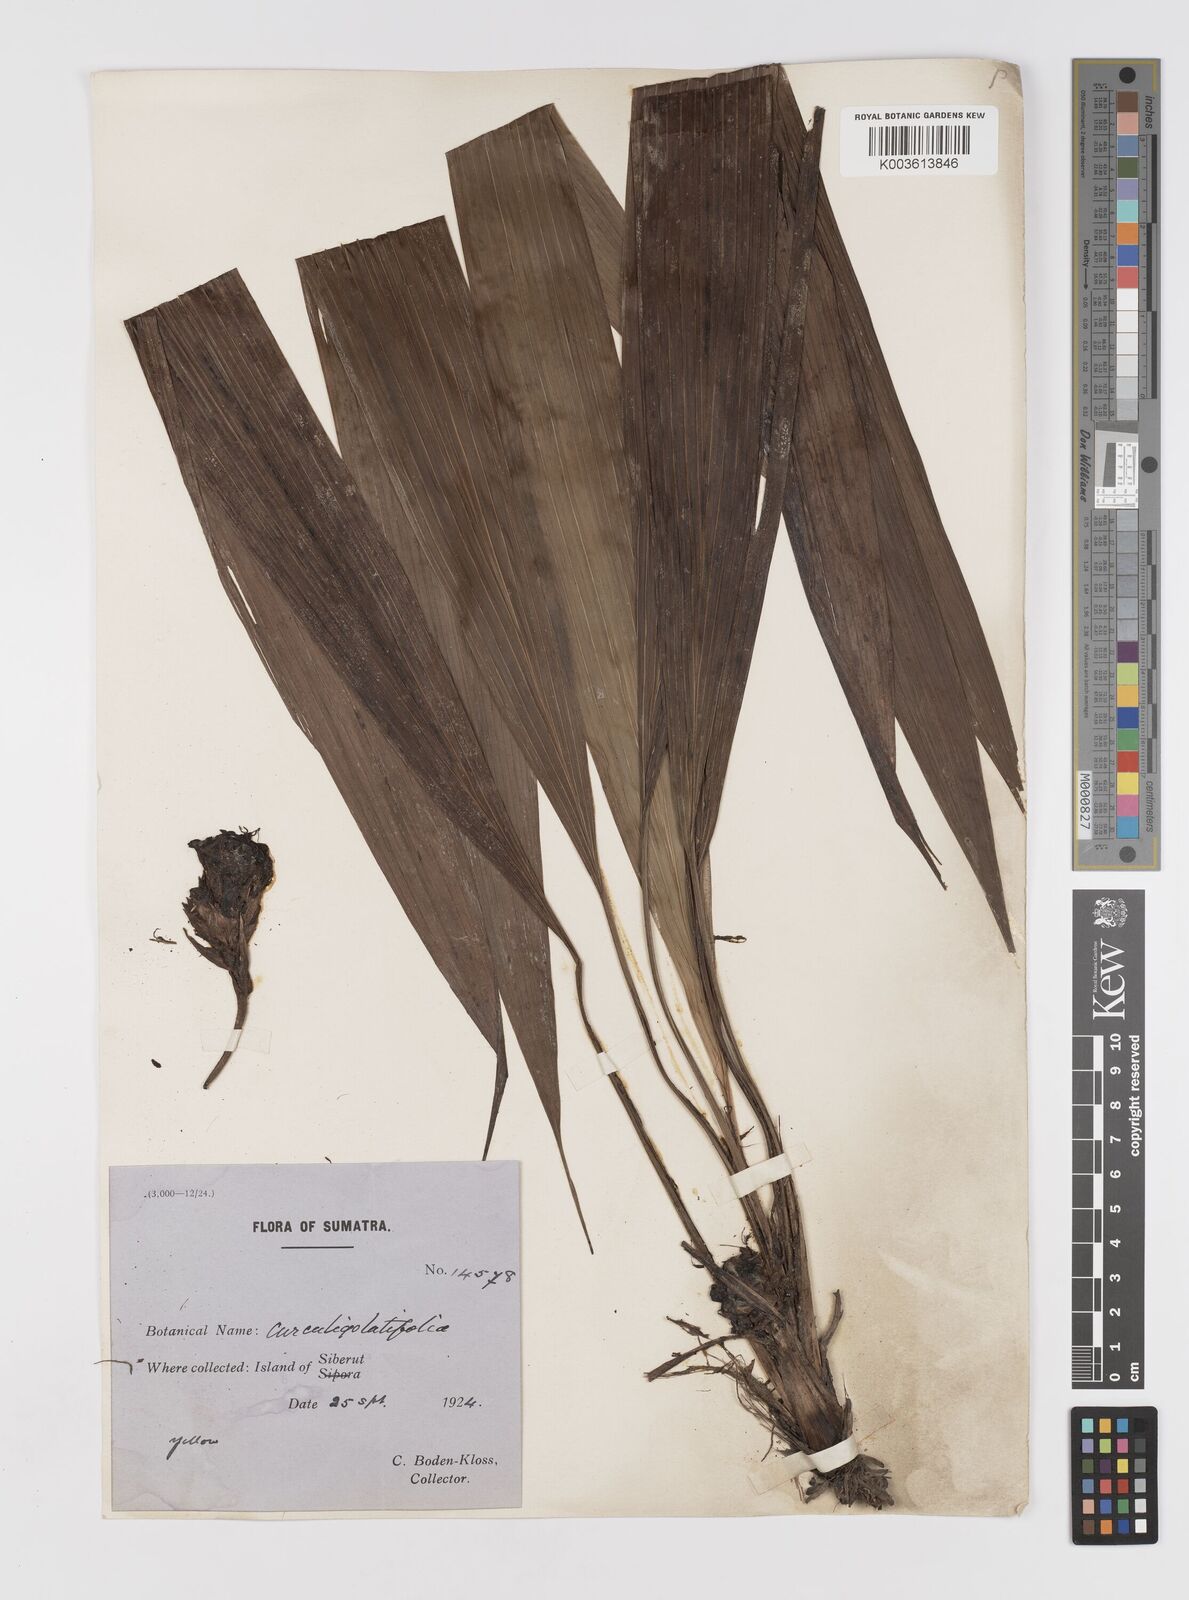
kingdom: Plantae
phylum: Tracheophyta
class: Liliopsida
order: Asparagales
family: Hypoxidaceae
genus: Curculigo
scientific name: Curculigo latifolia
